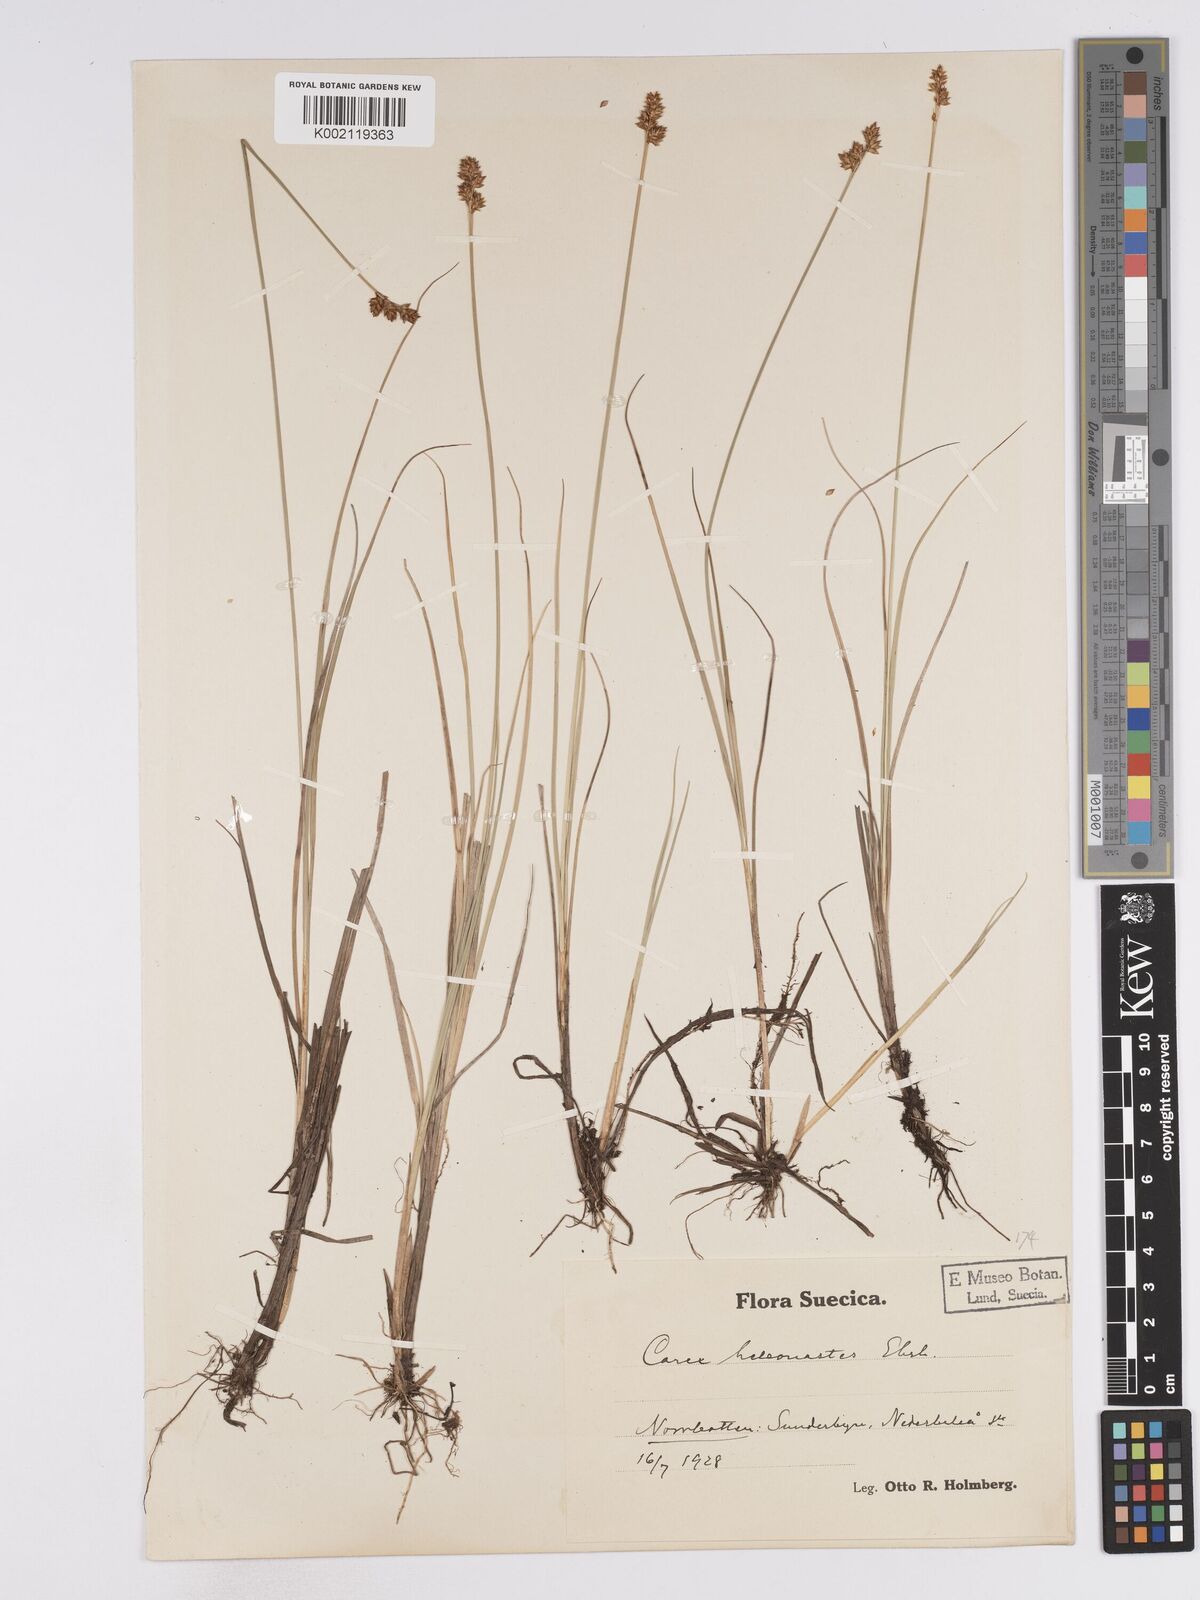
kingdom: Plantae
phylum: Tracheophyta
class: Liliopsida
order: Poales
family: Cyperaceae
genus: Carex
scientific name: Carex heleonastes
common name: Hudson bay sedge
